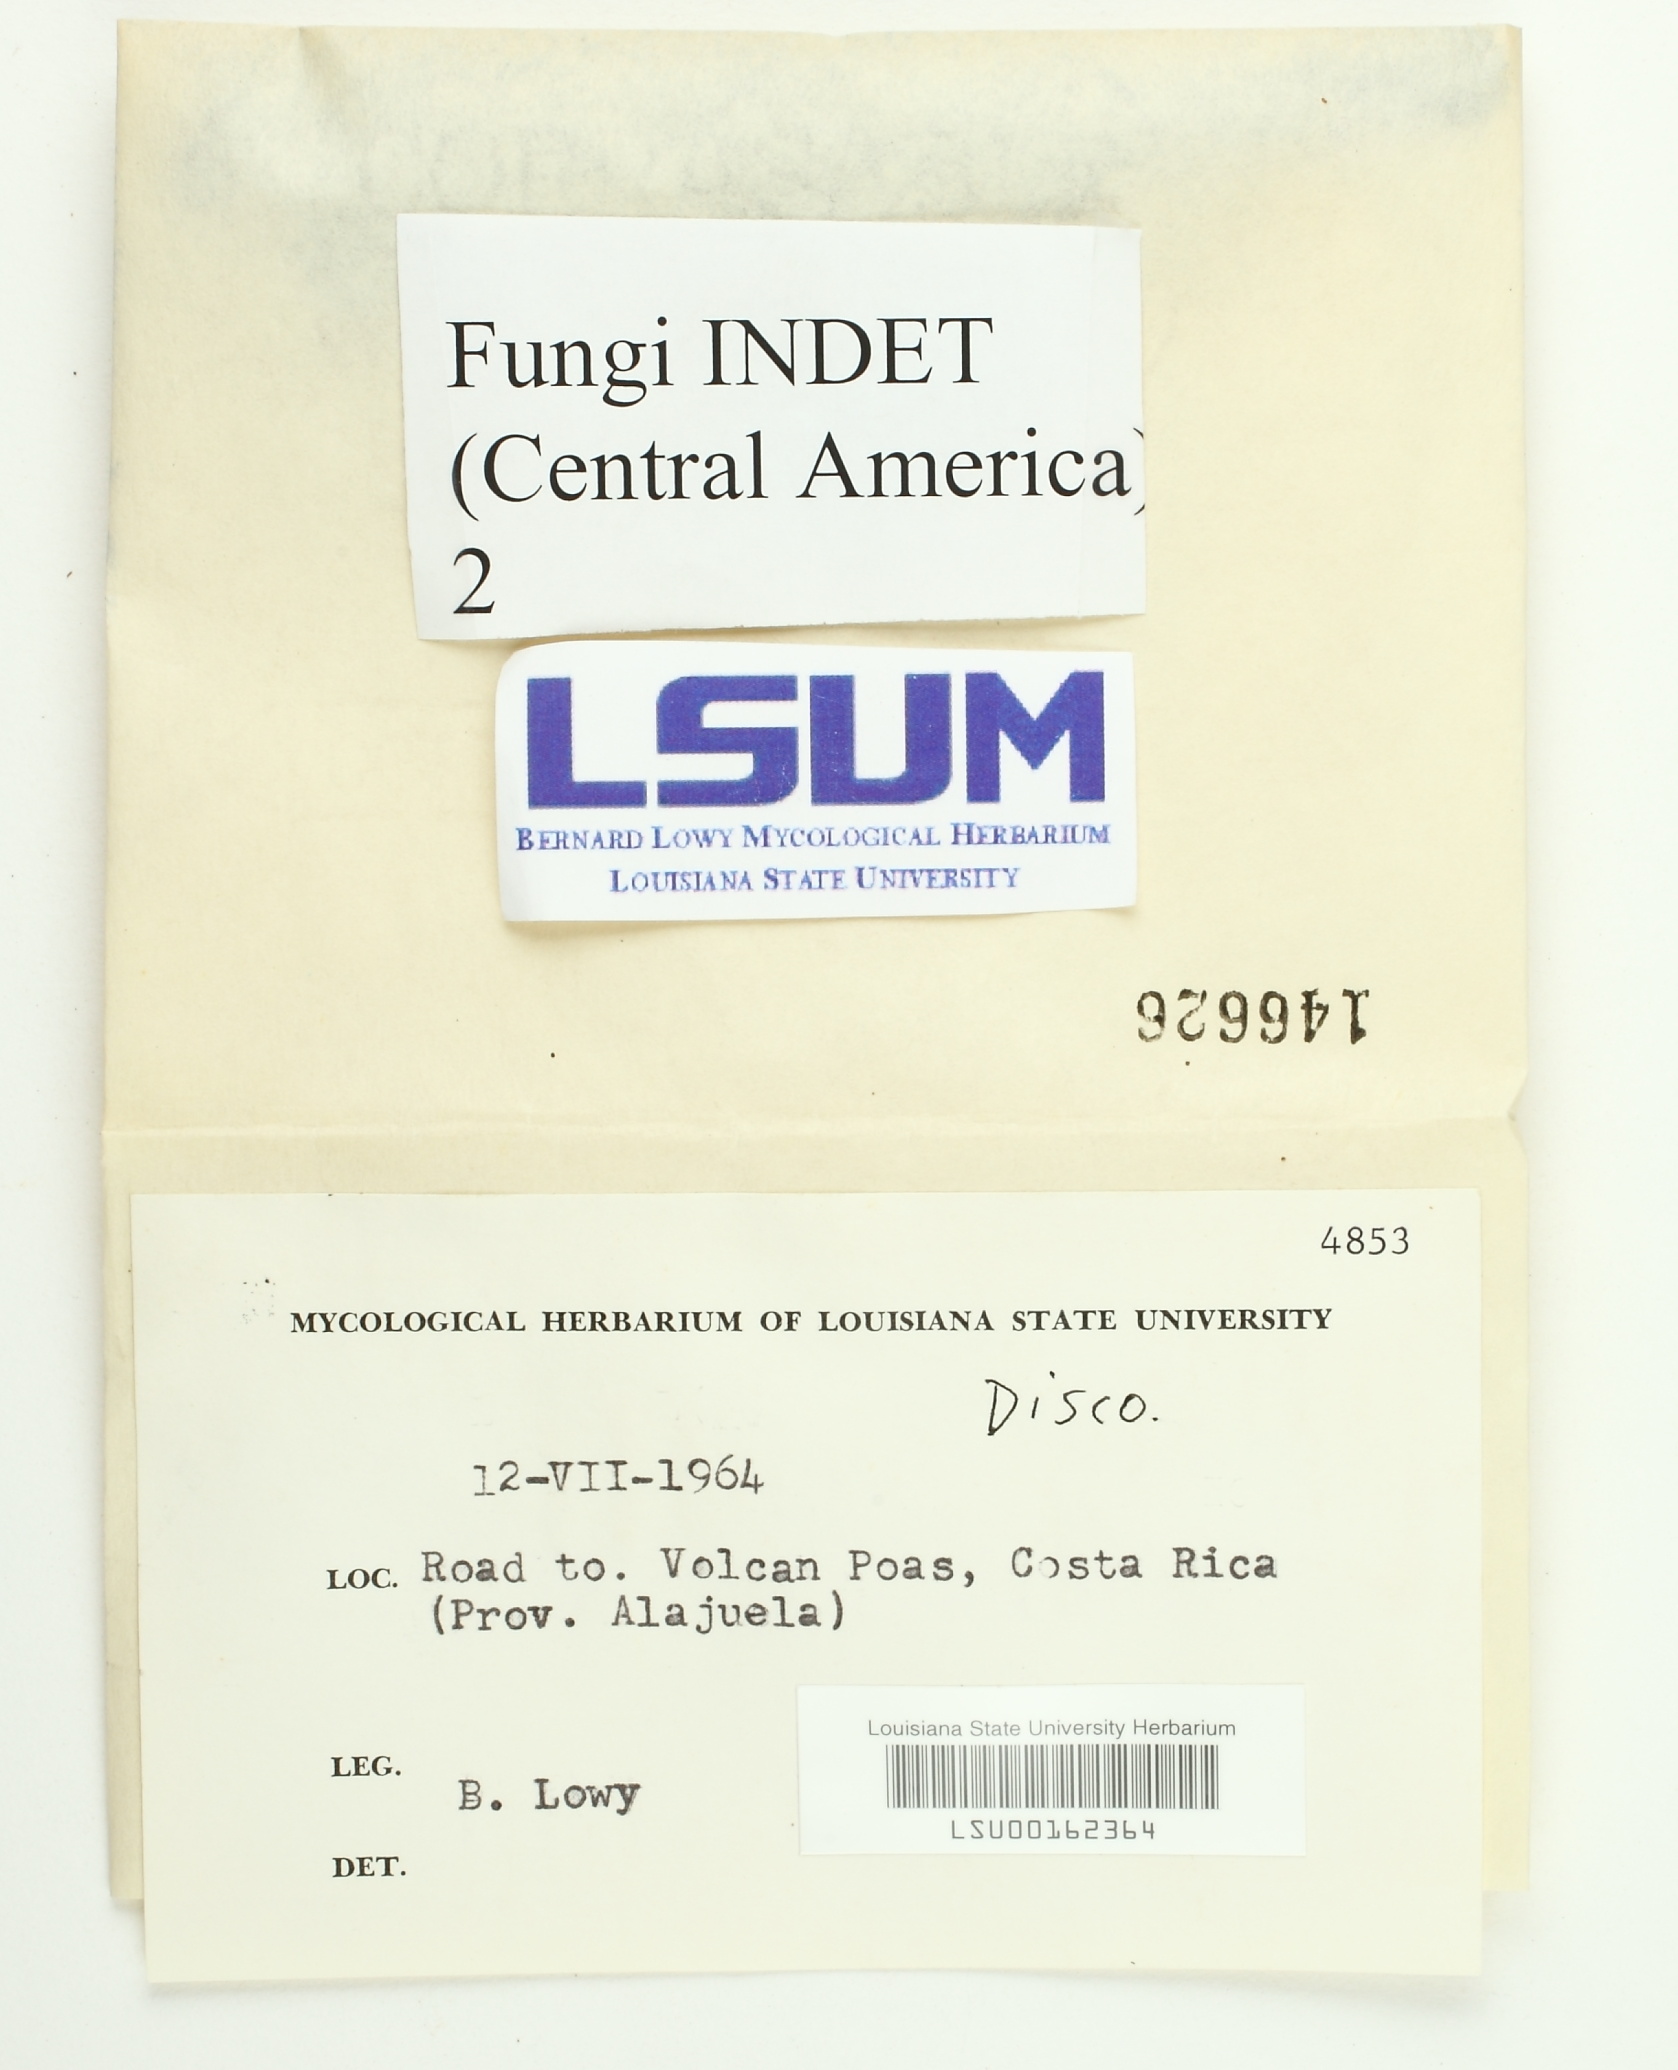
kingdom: Fungi
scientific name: Fungi
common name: Fungi
